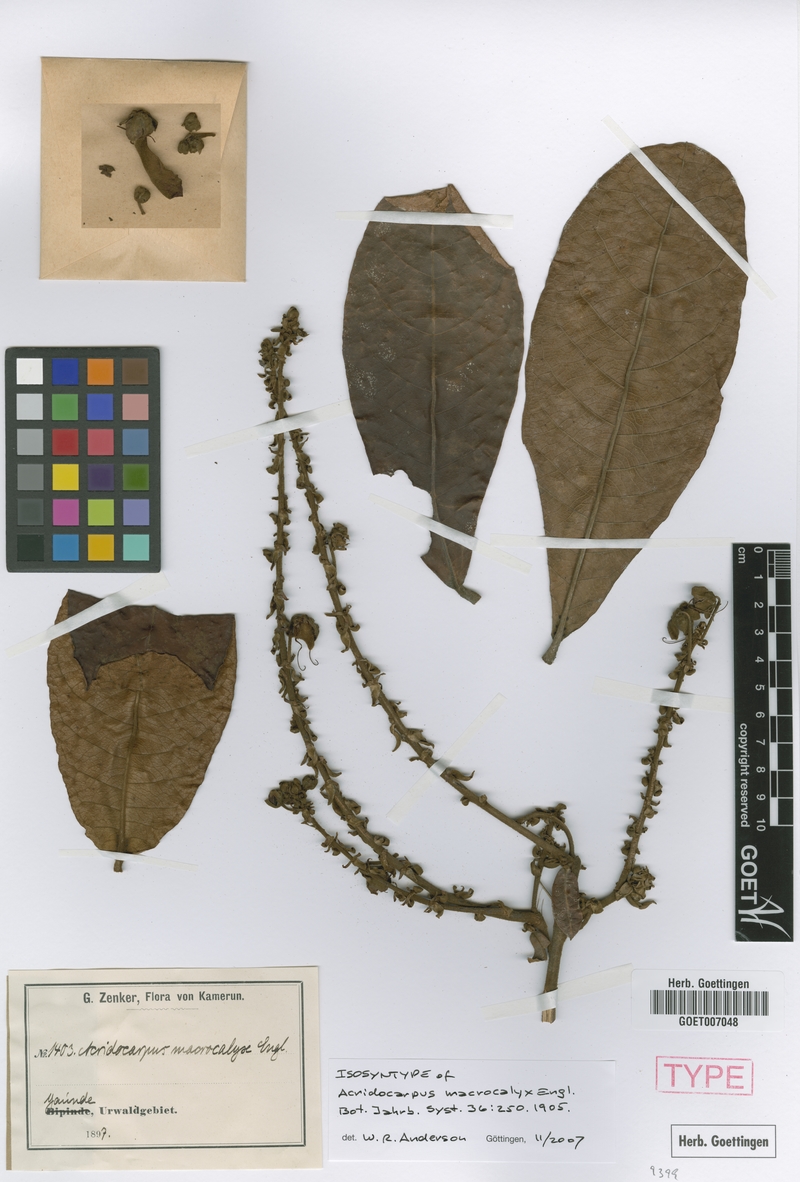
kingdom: Plantae
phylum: Tracheophyta
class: Magnoliopsida
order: Malpighiales
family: Malpighiaceae
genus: Acridocarpus
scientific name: Acridocarpus macrocalyx
